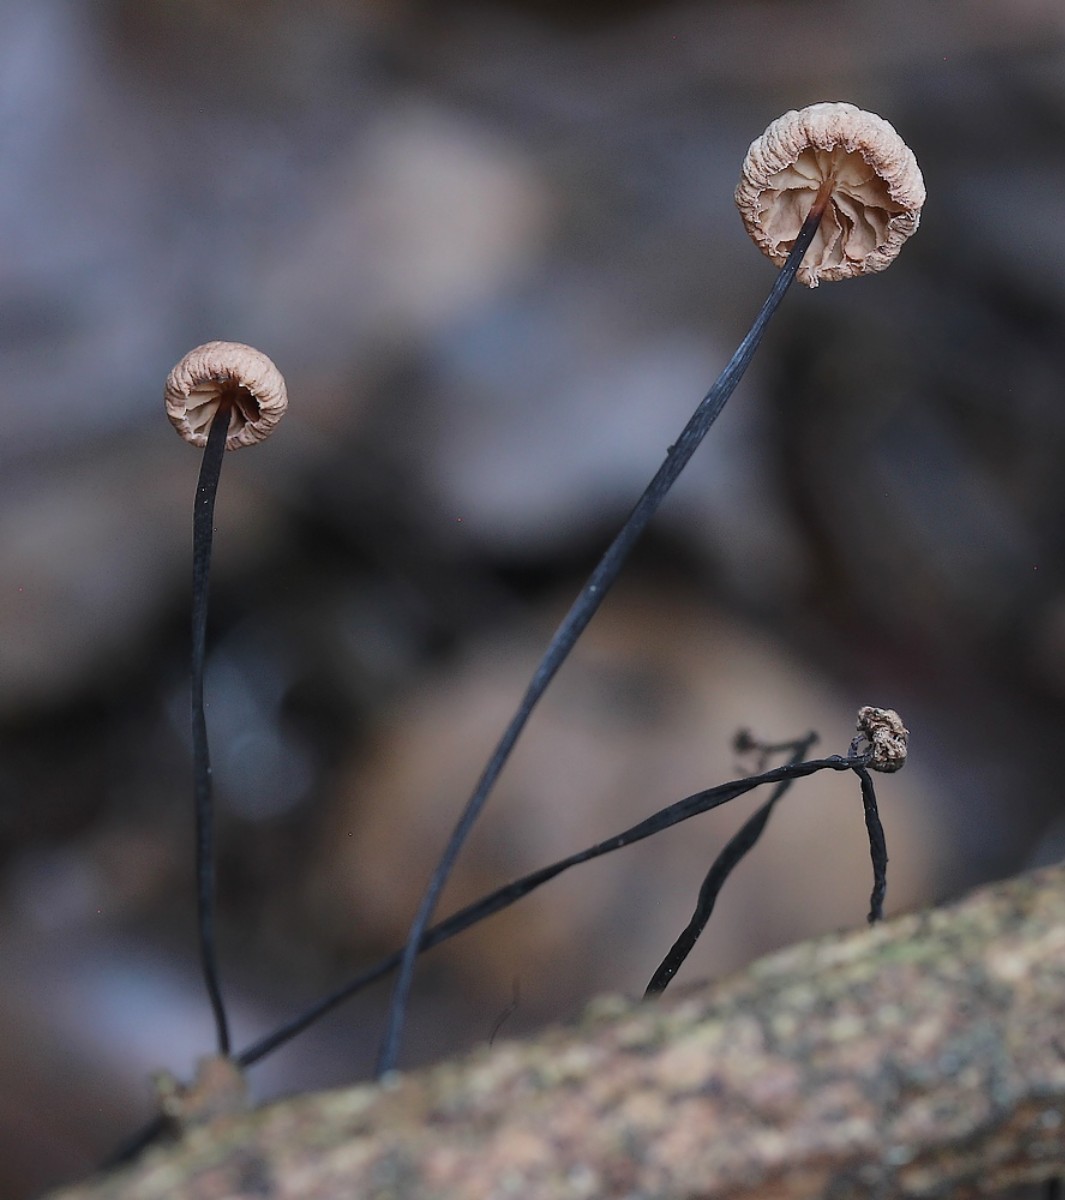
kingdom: Fungi
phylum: Basidiomycota
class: Agaricomycetes
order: Agaricales
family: Omphalotaceae
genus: Gymnopus
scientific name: Gymnopus androsaceus
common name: trådstokket fladhat
